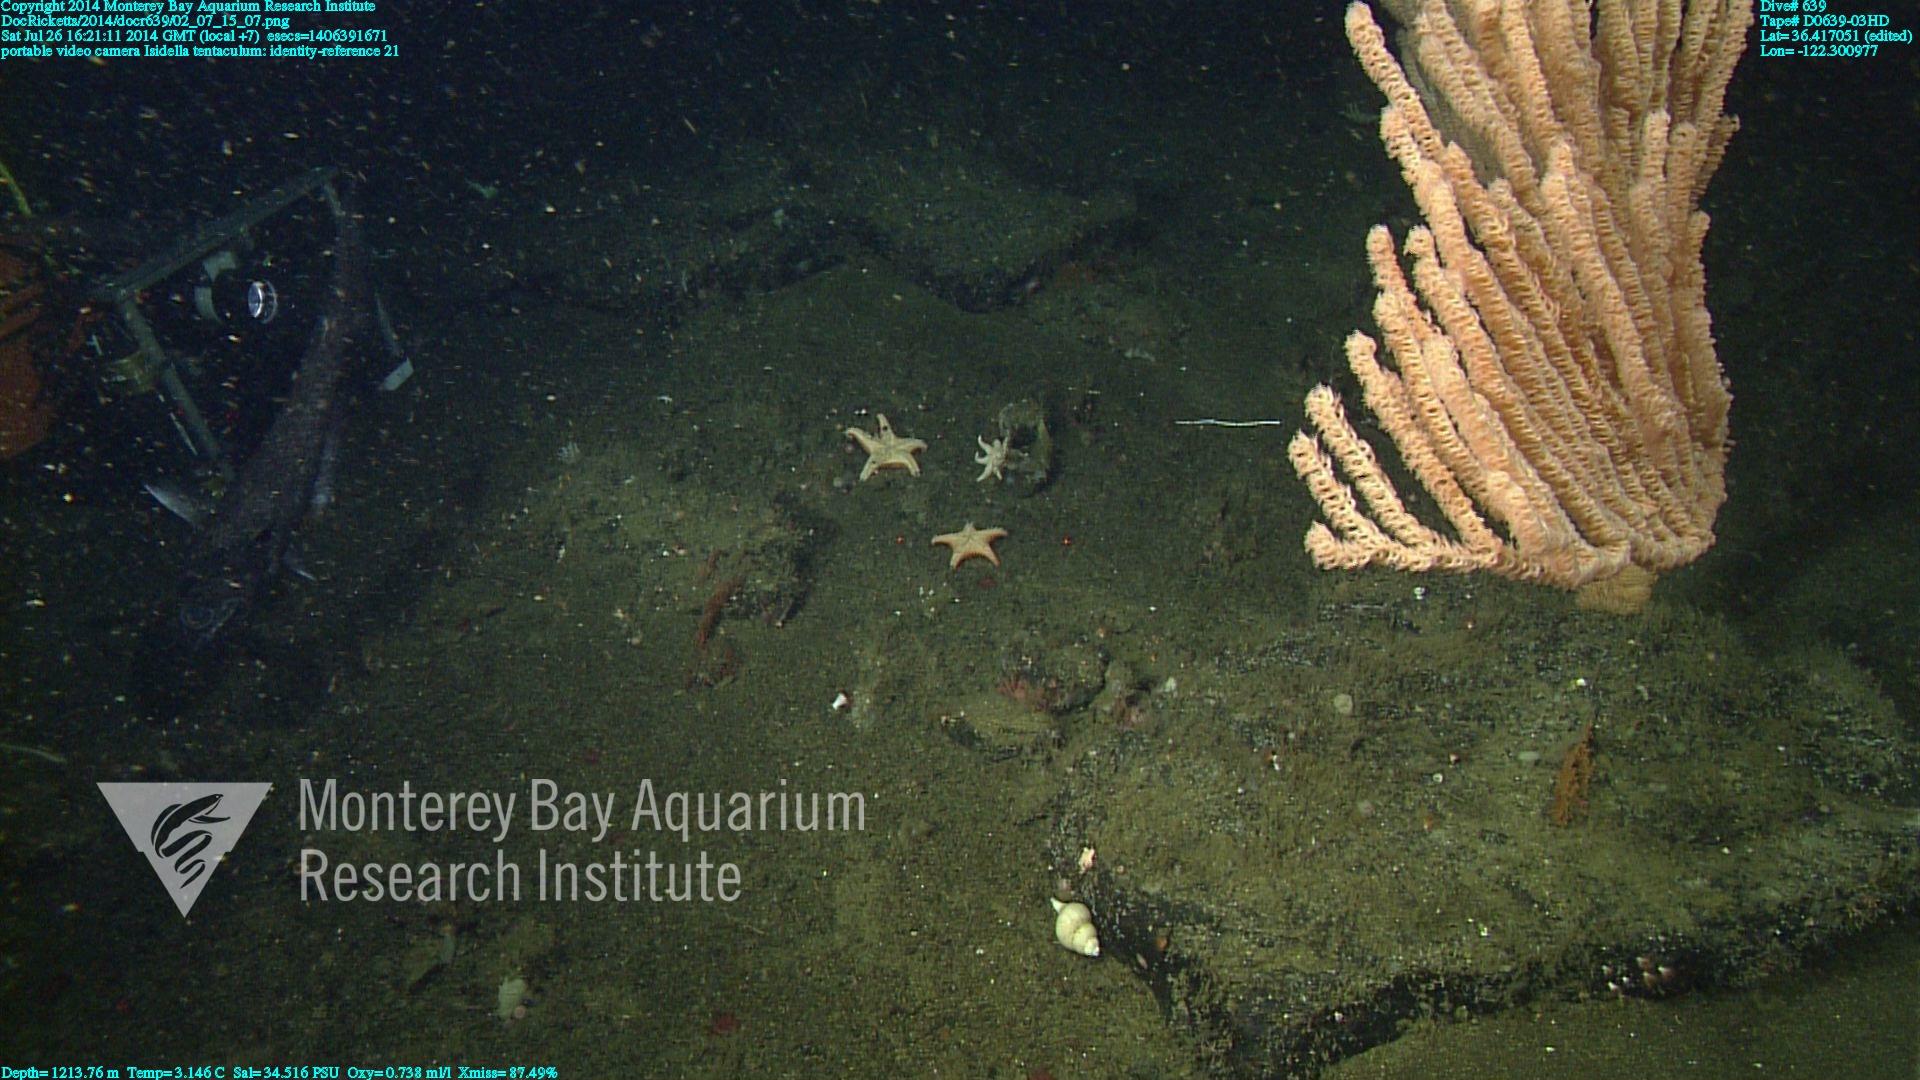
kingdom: Animalia
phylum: Cnidaria
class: Anthozoa
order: Scleralcyonacea
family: Keratoisididae
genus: Isidella
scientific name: Isidella tentaculum
